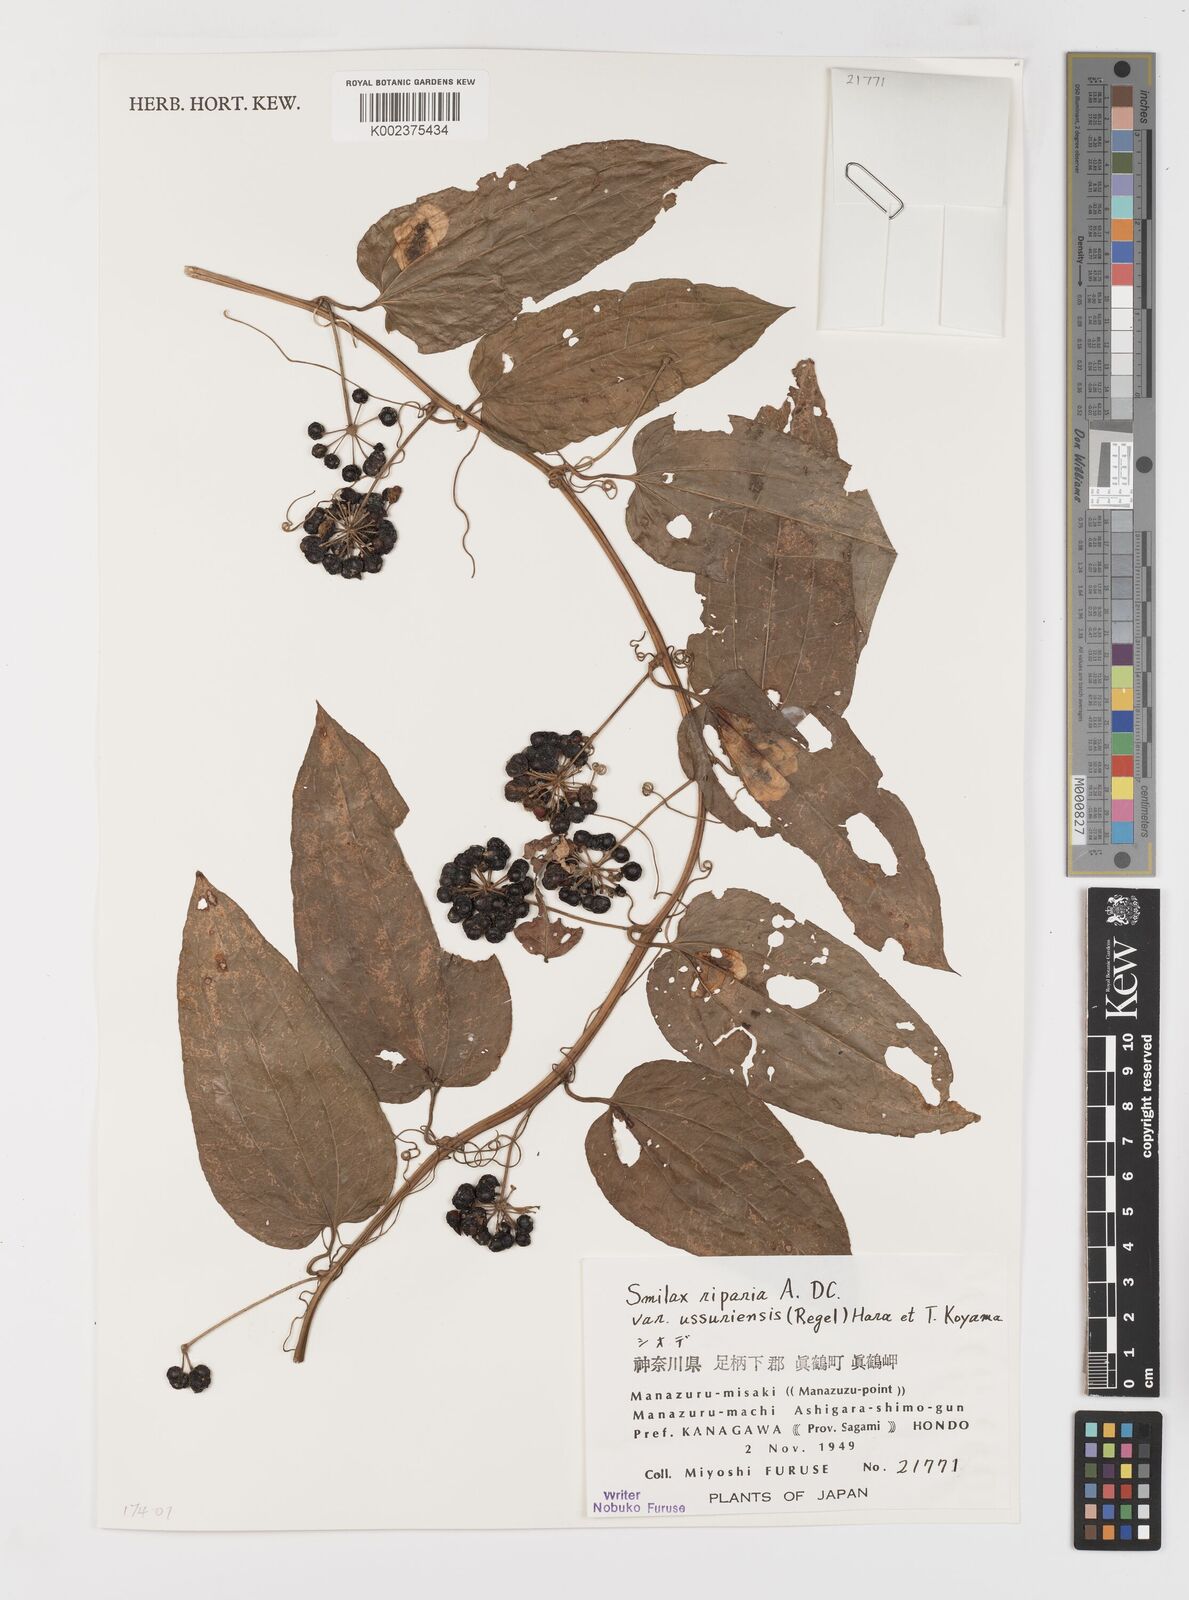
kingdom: Plantae
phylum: Tracheophyta
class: Liliopsida
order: Liliales
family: Smilacaceae
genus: Smilax
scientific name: Smilax riparia
